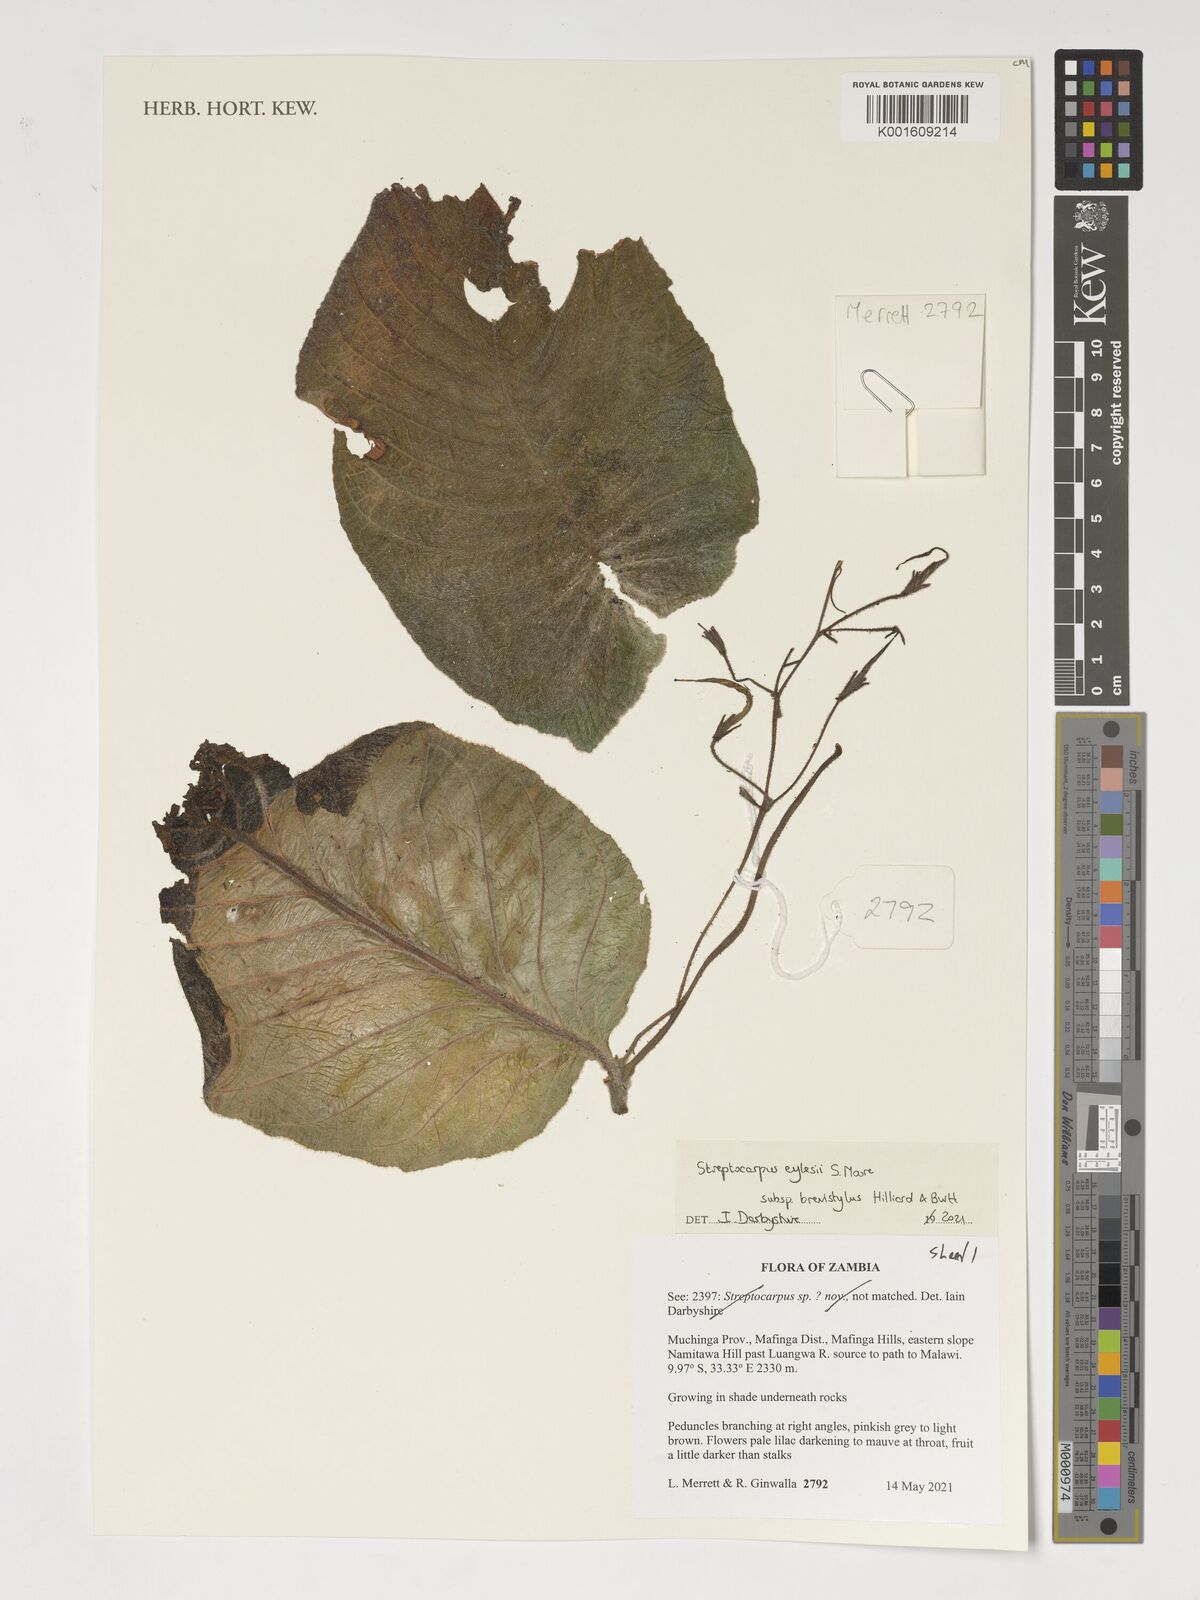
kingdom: Plantae
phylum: Tracheophyta
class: Magnoliopsida
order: Lamiales
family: Gesneriaceae
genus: Streptocarpus
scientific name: Streptocarpus eylesii
